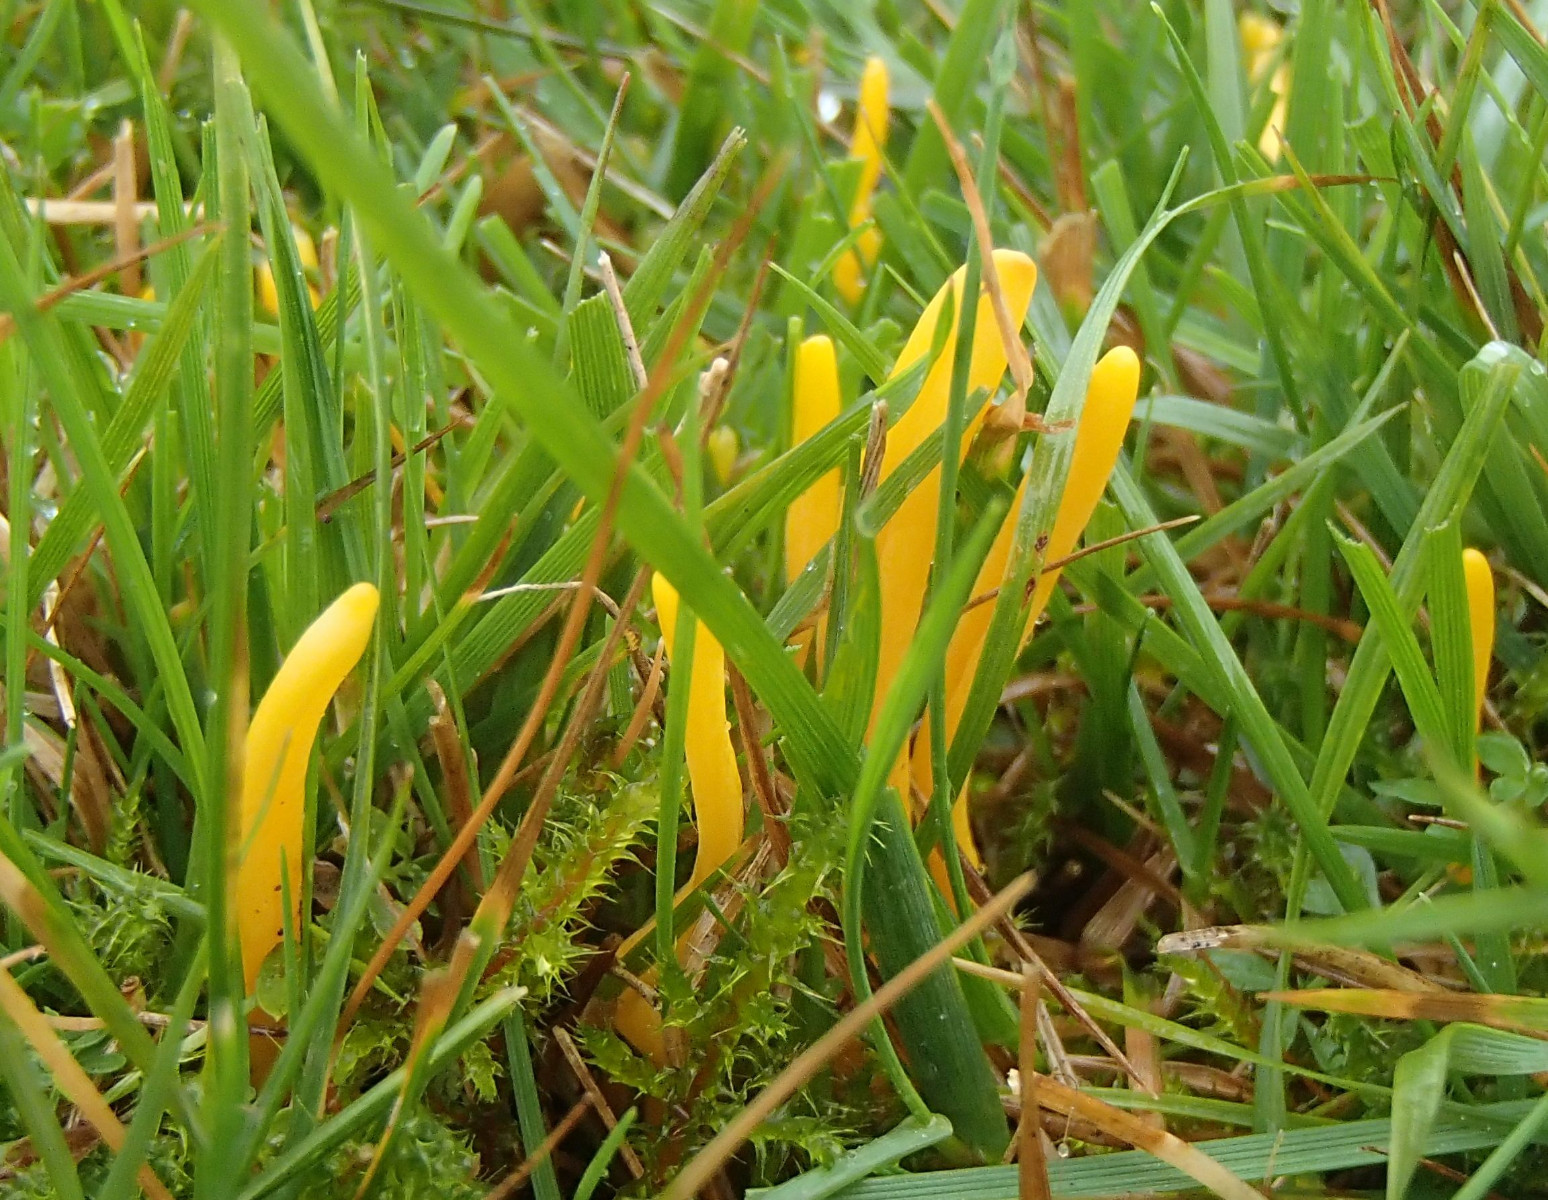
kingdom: Fungi
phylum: Basidiomycota
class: Agaricomycetes
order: Agaricales
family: Clavariaceae
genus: Clavulinopsis
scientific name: Clavulinopsis
